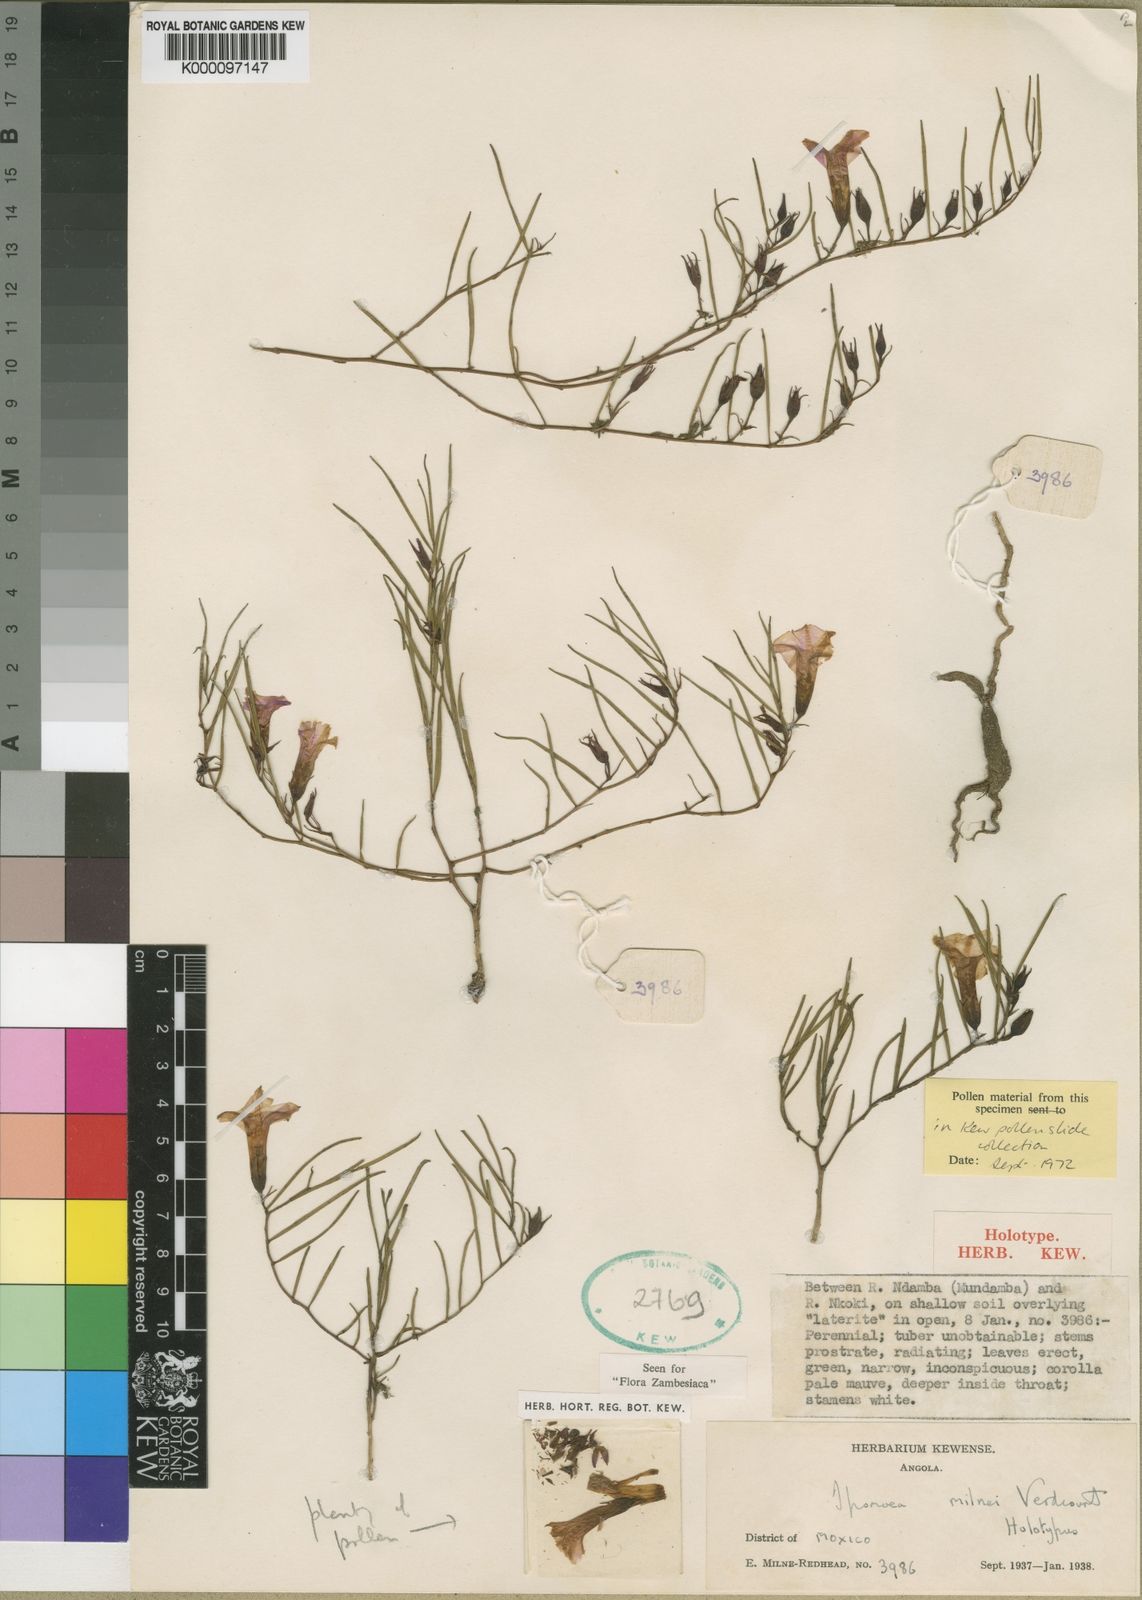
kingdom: Plantae
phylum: Tracheophyta
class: Magnoliopsida
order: Solanales
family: Convolvulaceae
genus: Ipomoea
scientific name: Ipomoea milnei
